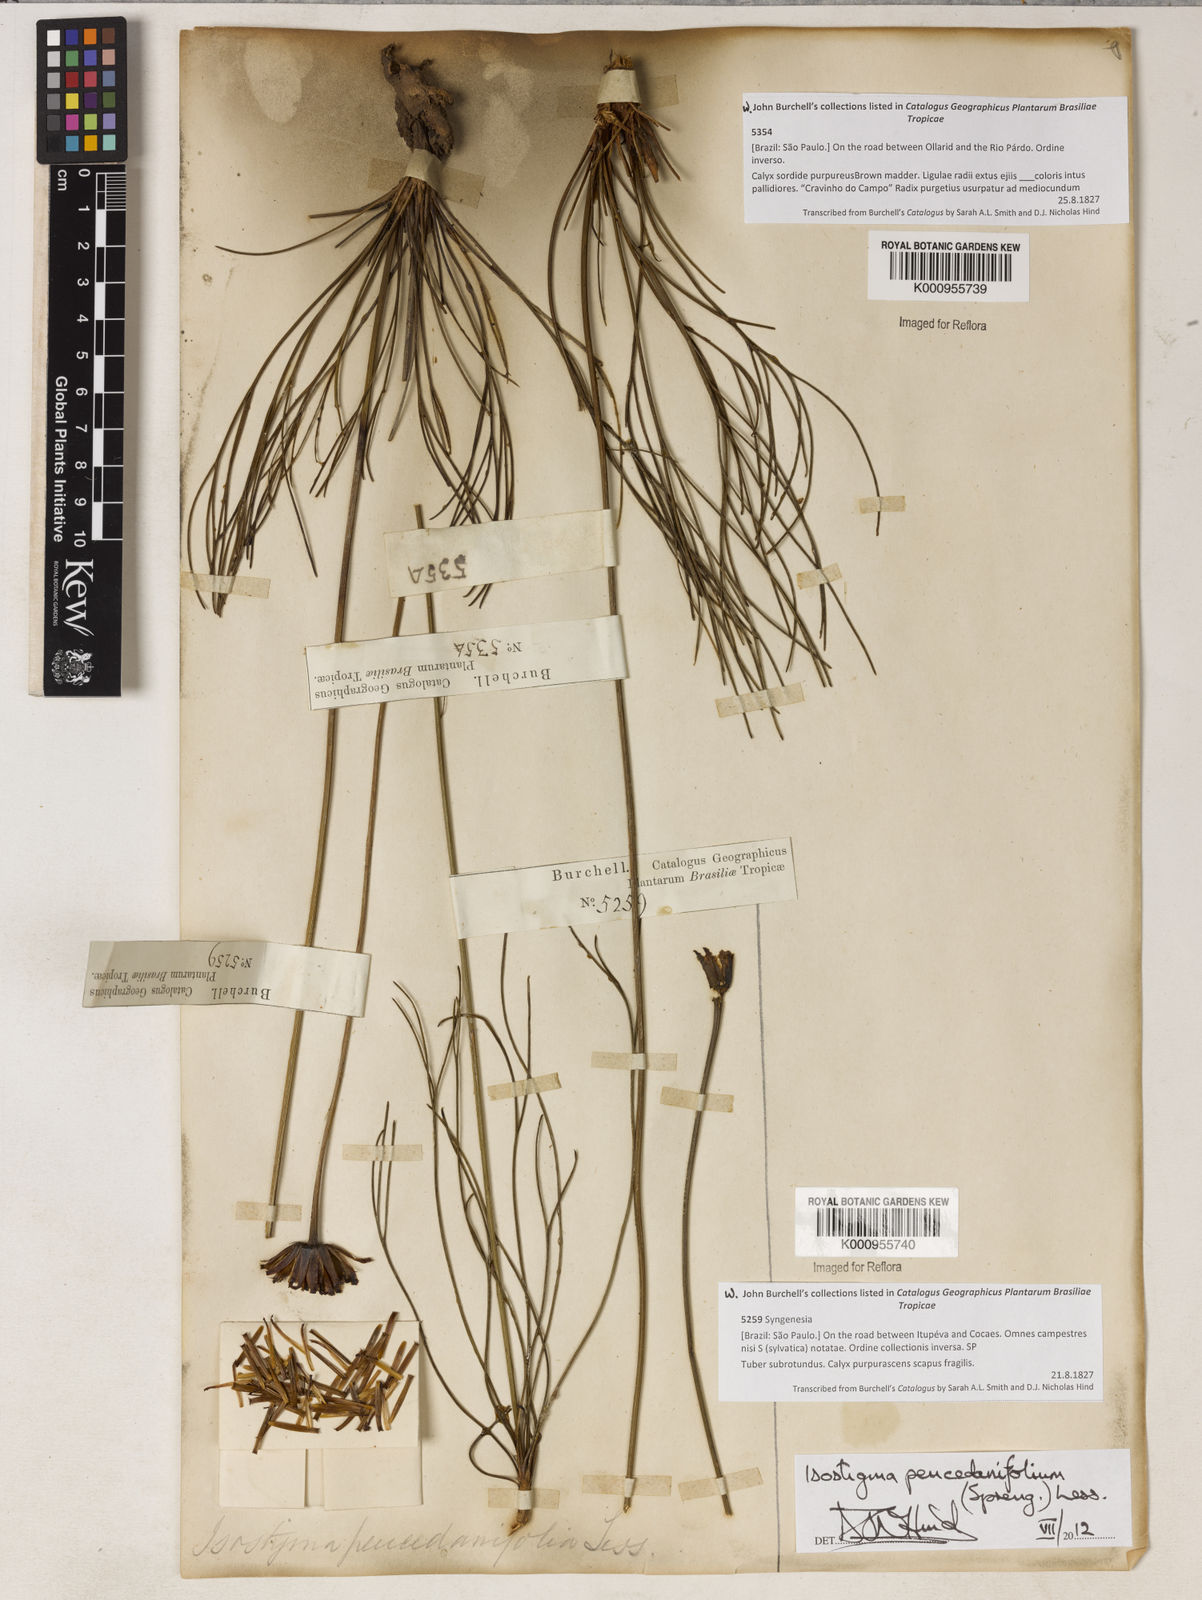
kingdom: Plantae
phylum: Tracheophyta
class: Magnoliopsida
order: Asterales
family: Asteraceae
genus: Isostigma
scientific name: Isostigma
